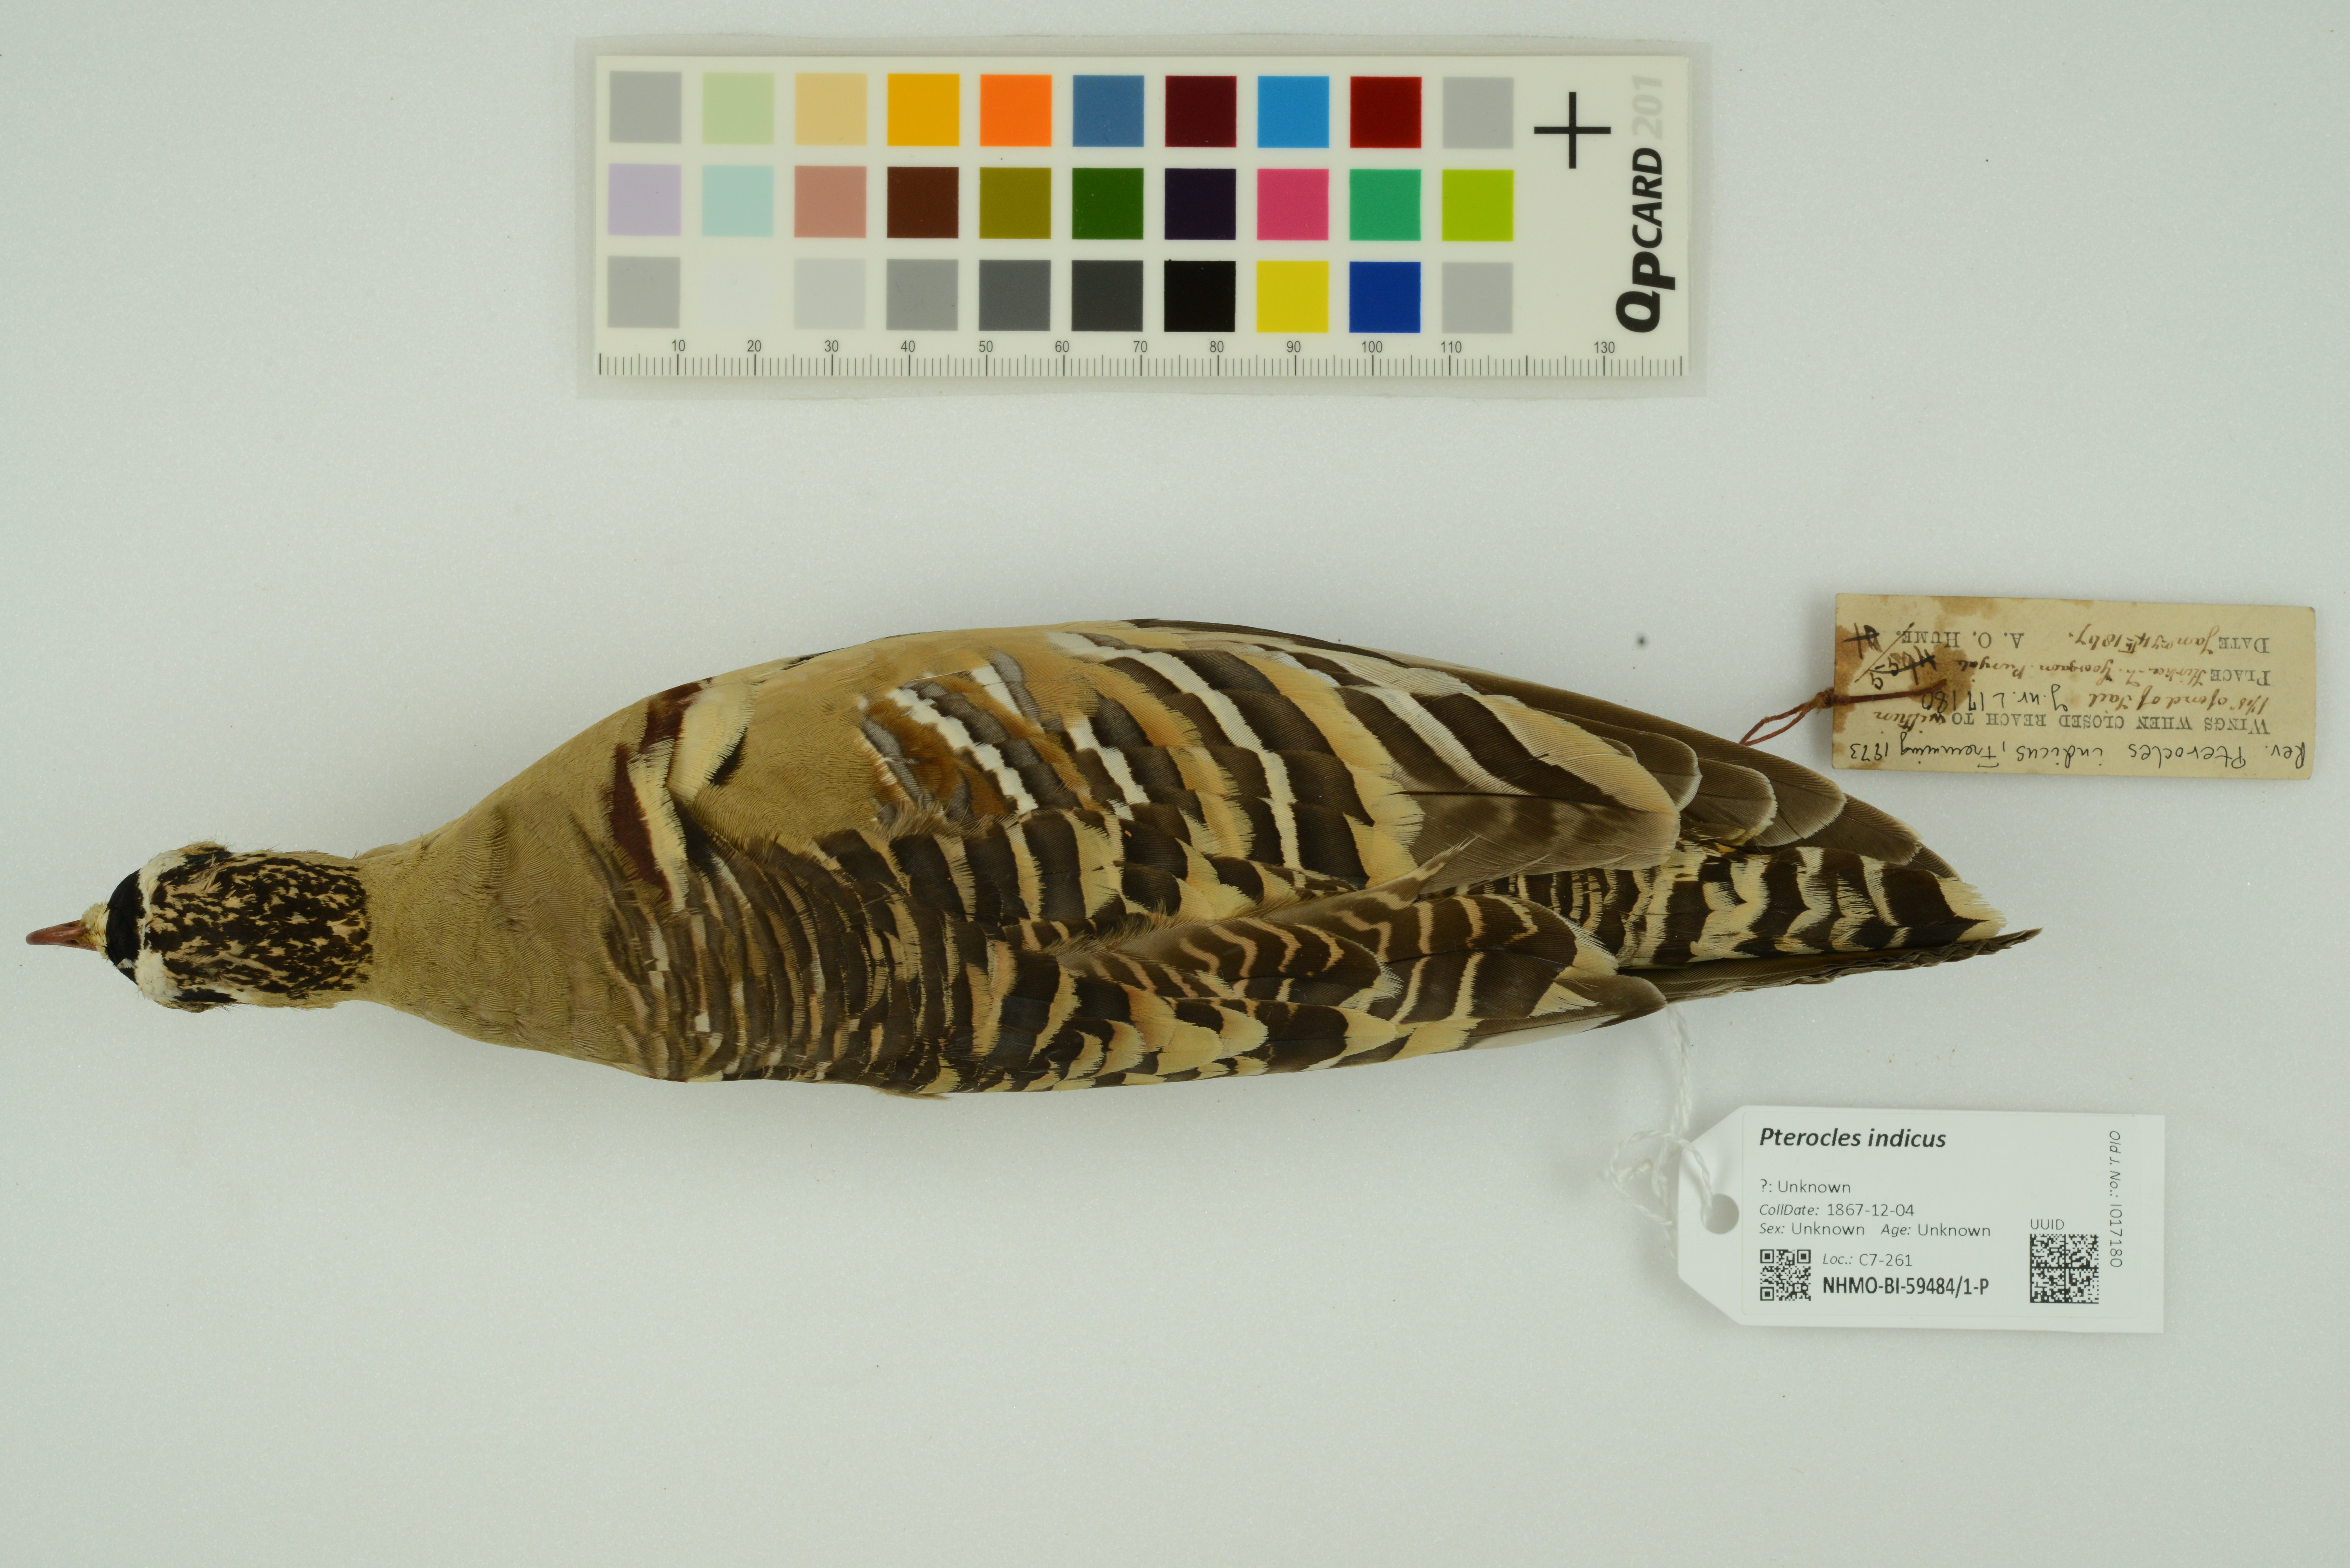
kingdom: Animalia
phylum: Chordata
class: Aves
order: Pteroclidiformes
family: Pteroclididae
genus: Pterocles
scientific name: Pterocles indicus
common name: Painted sandgrouse
